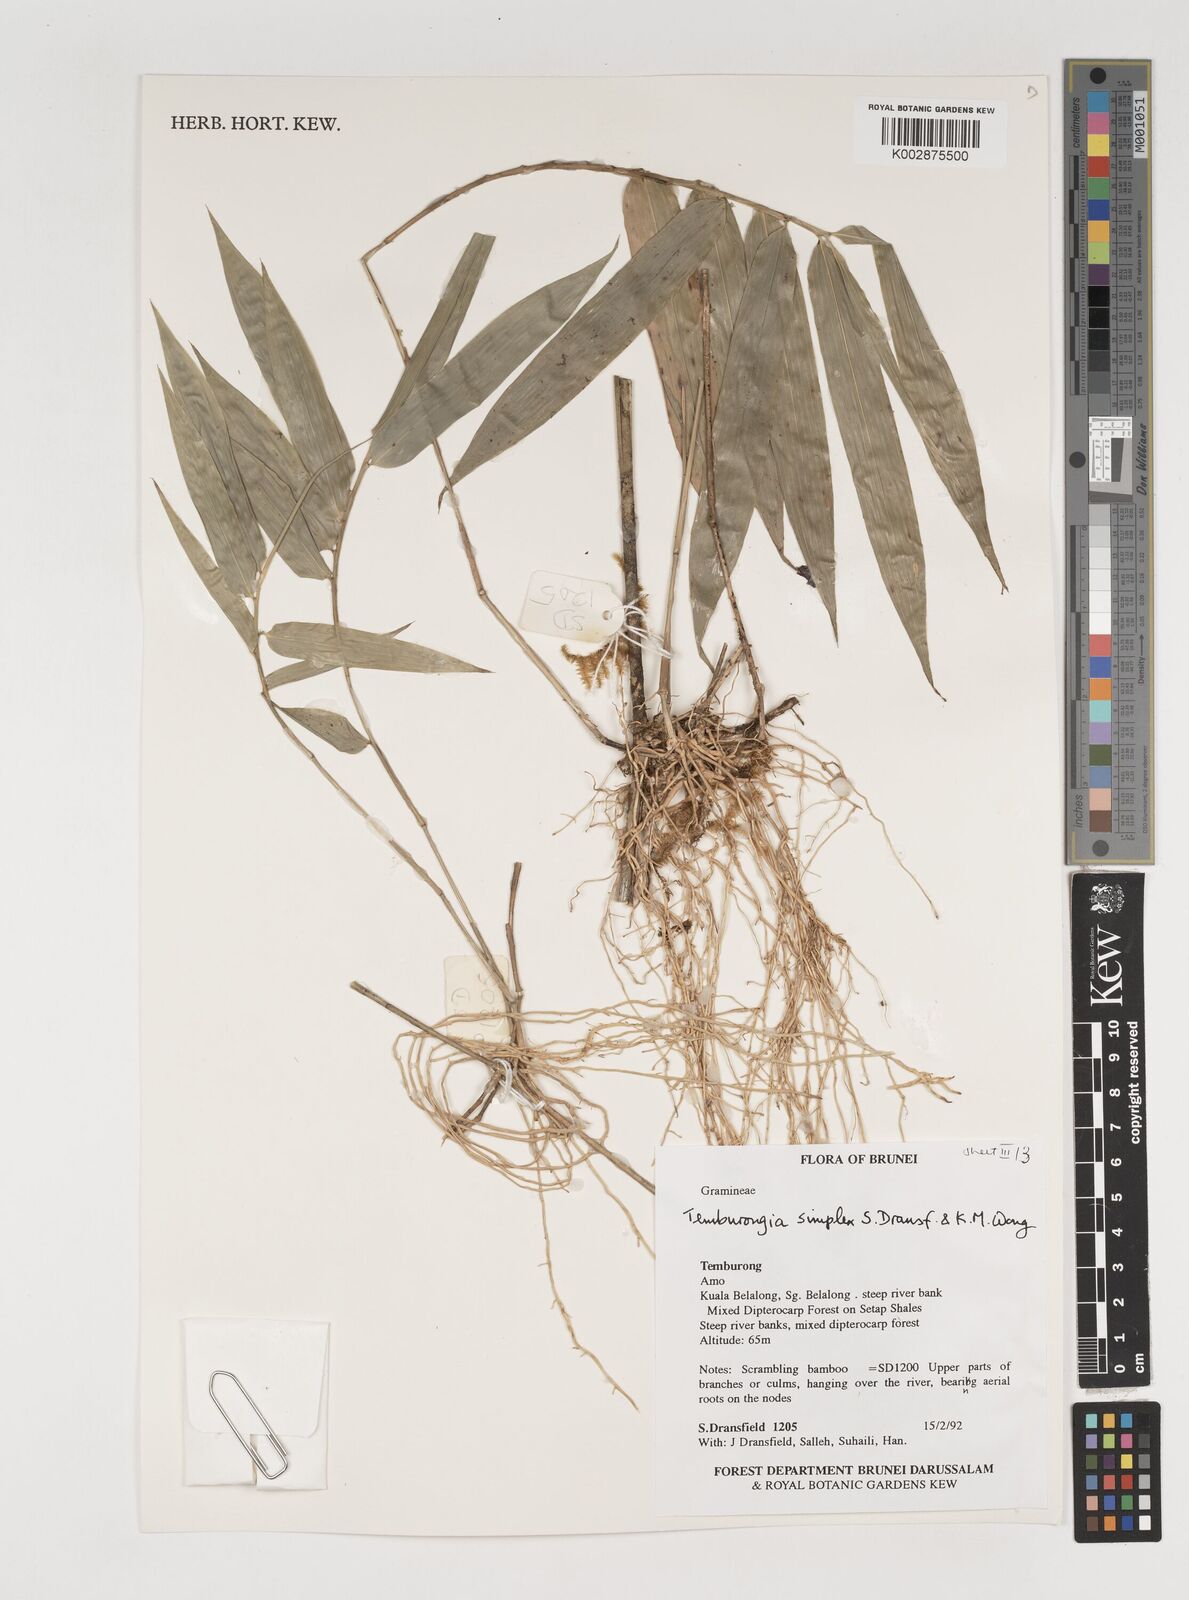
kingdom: Plantae
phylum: Tracheophyta
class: Liliopsida
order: Poales
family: Poaceae
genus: Temburongia
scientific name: Temburongia simplex
